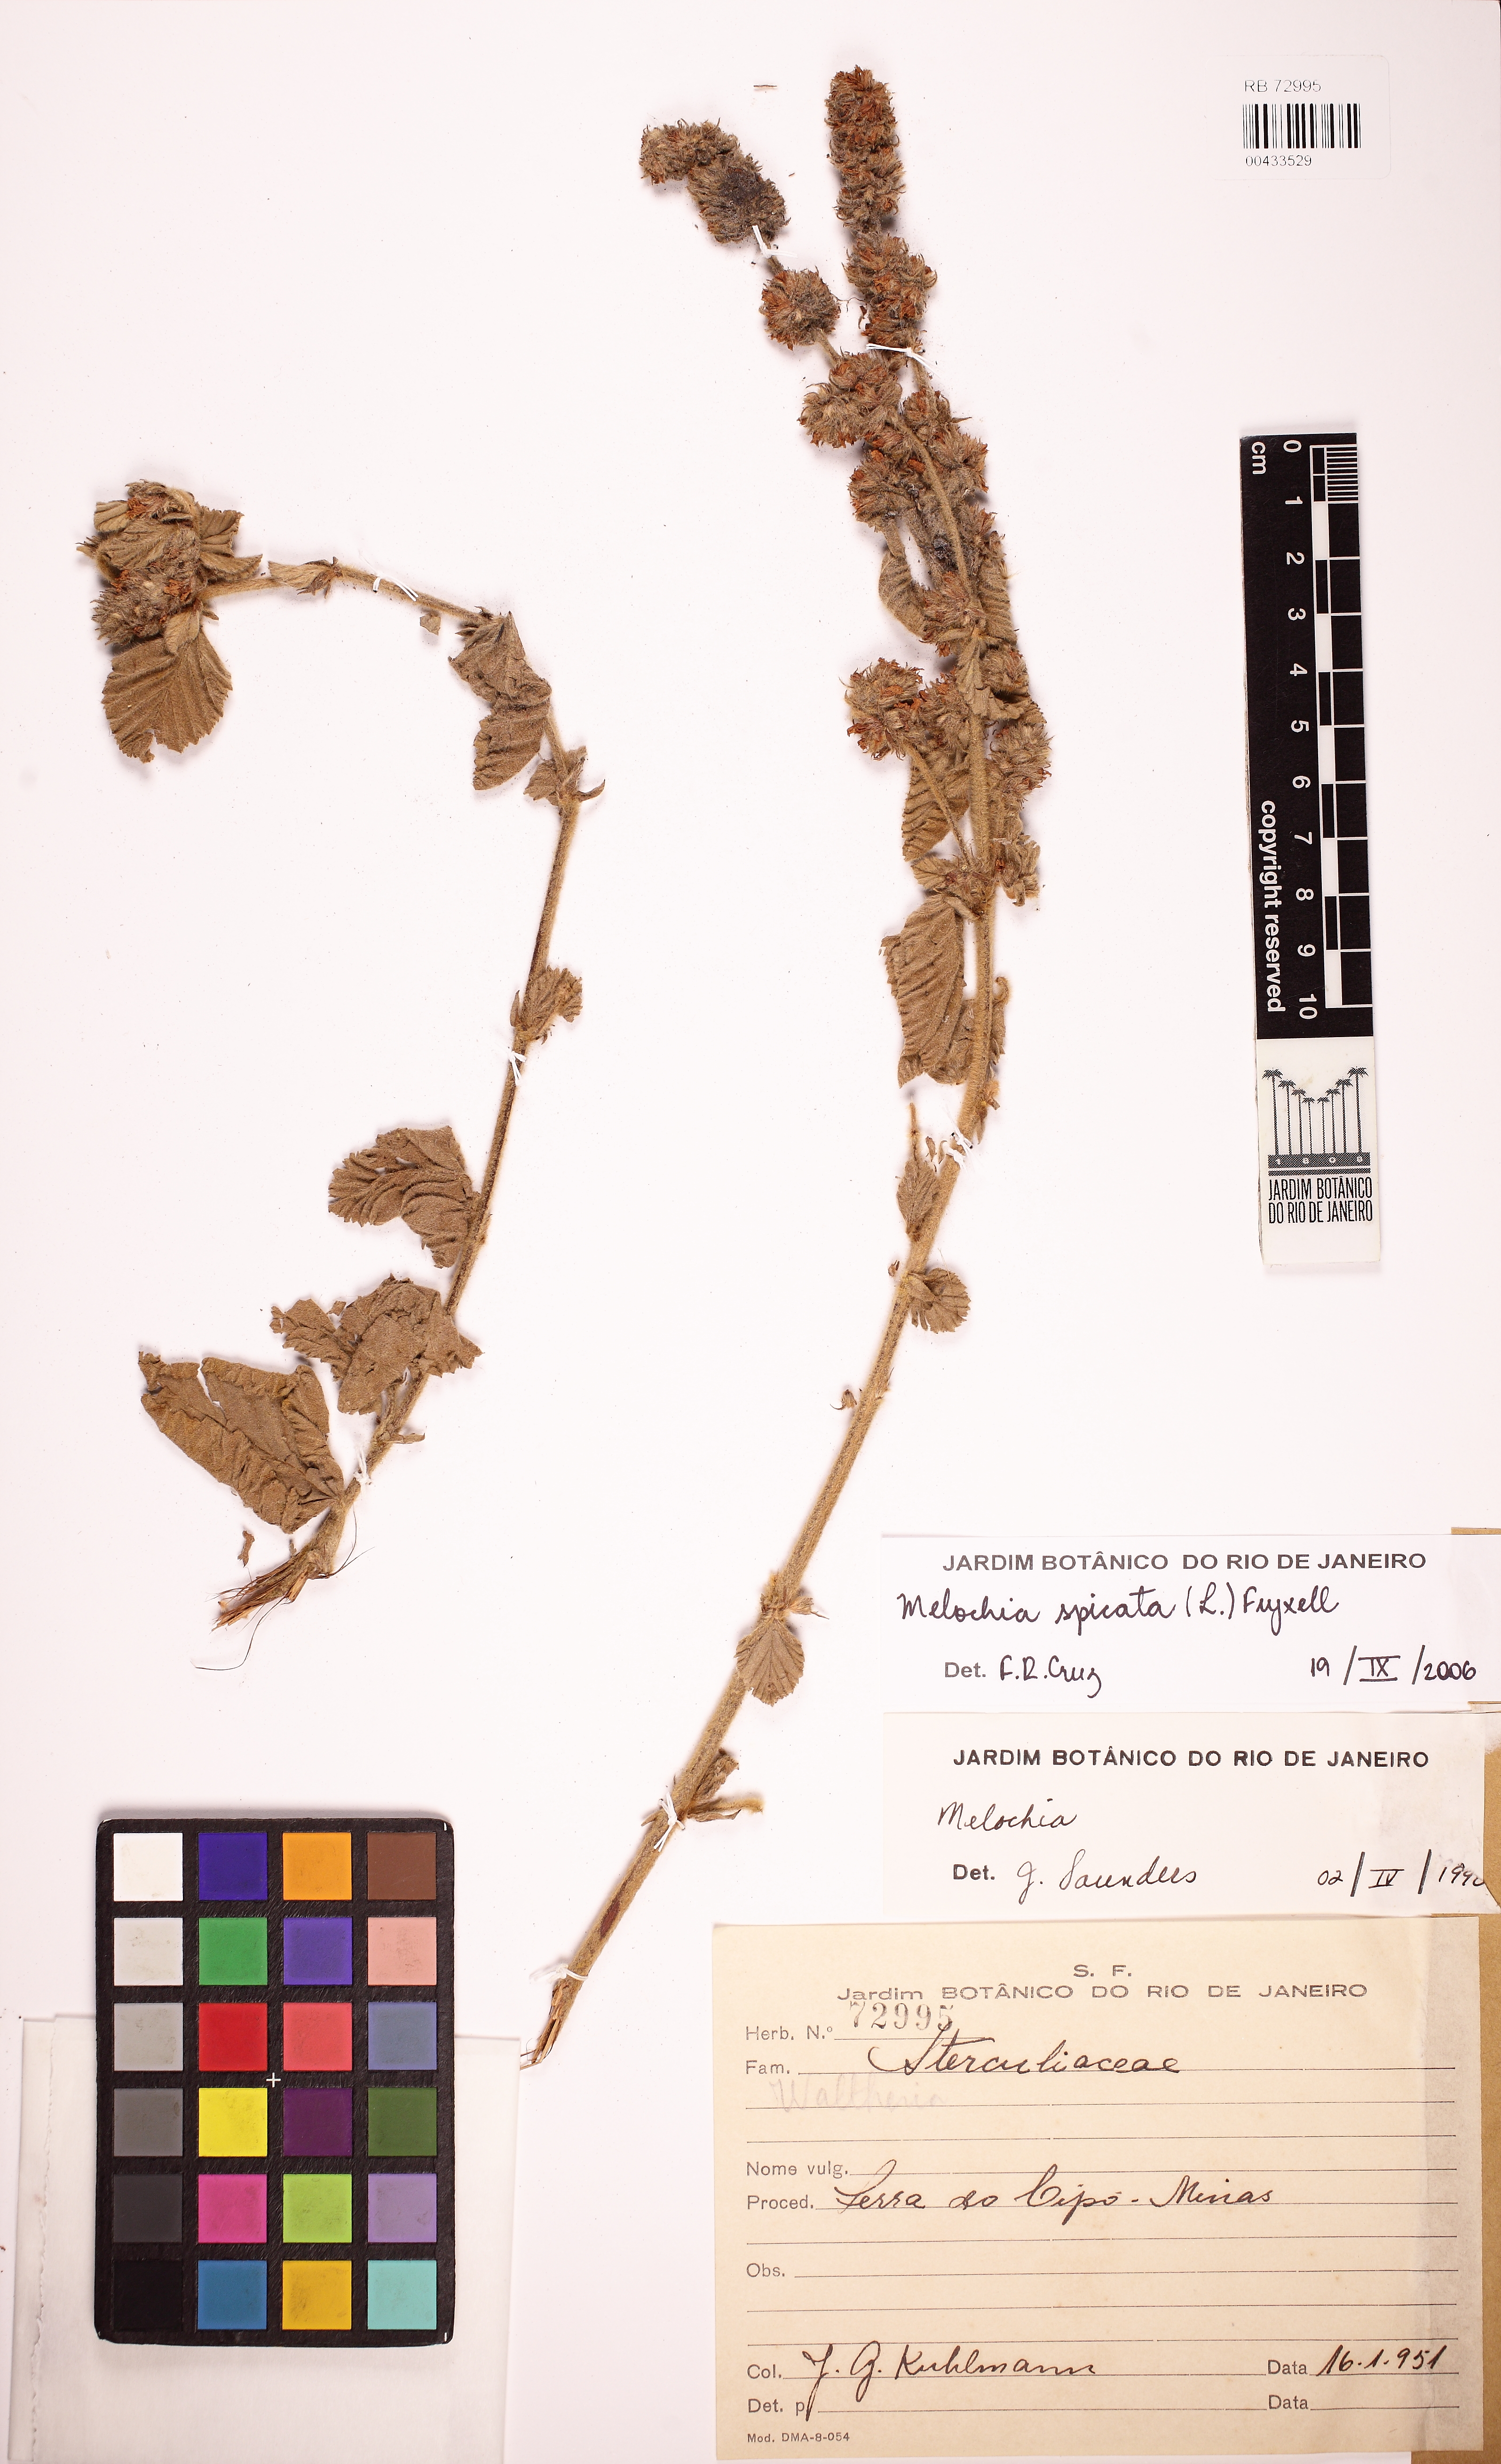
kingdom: Plantae
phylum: Tracheophyta
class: Magnoliopsida
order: Malvales
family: Malvaceae
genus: Melochia
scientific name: Melochia spicata
